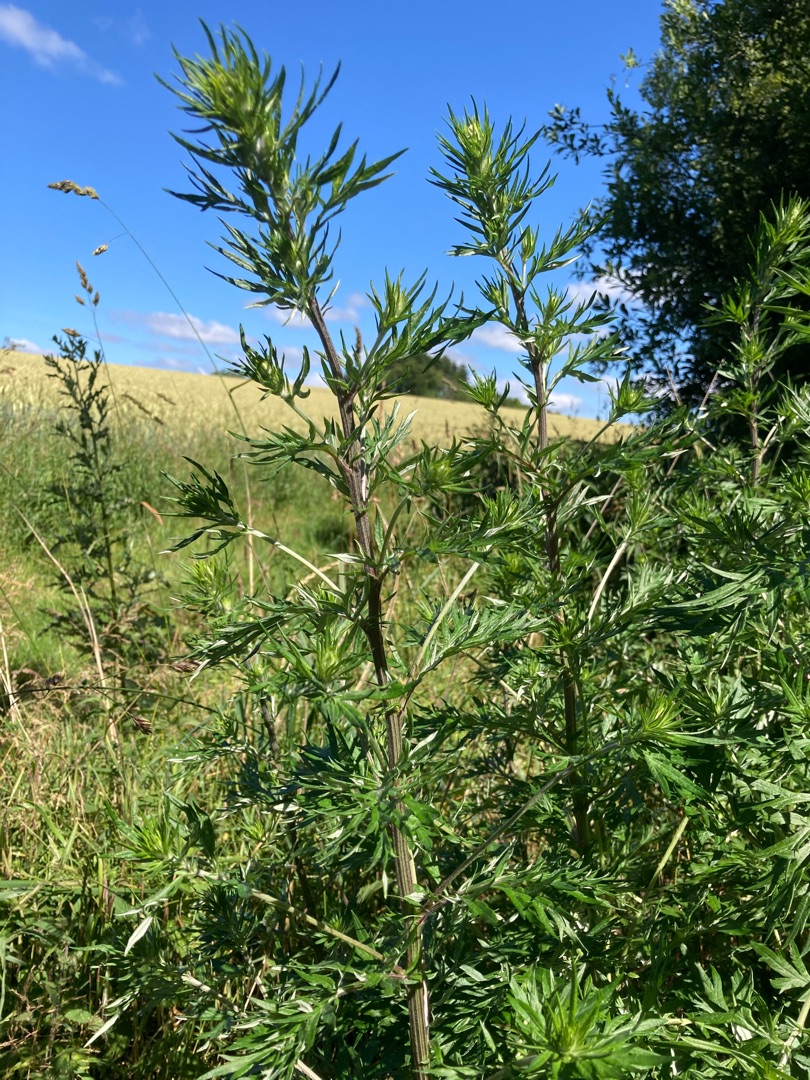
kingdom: Plantae
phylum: Tracheophyta
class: Magnoliopsida
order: Asterales
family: Asteraceae
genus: Artemisia
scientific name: Artemisia vulgaris
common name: Grå-bynke
